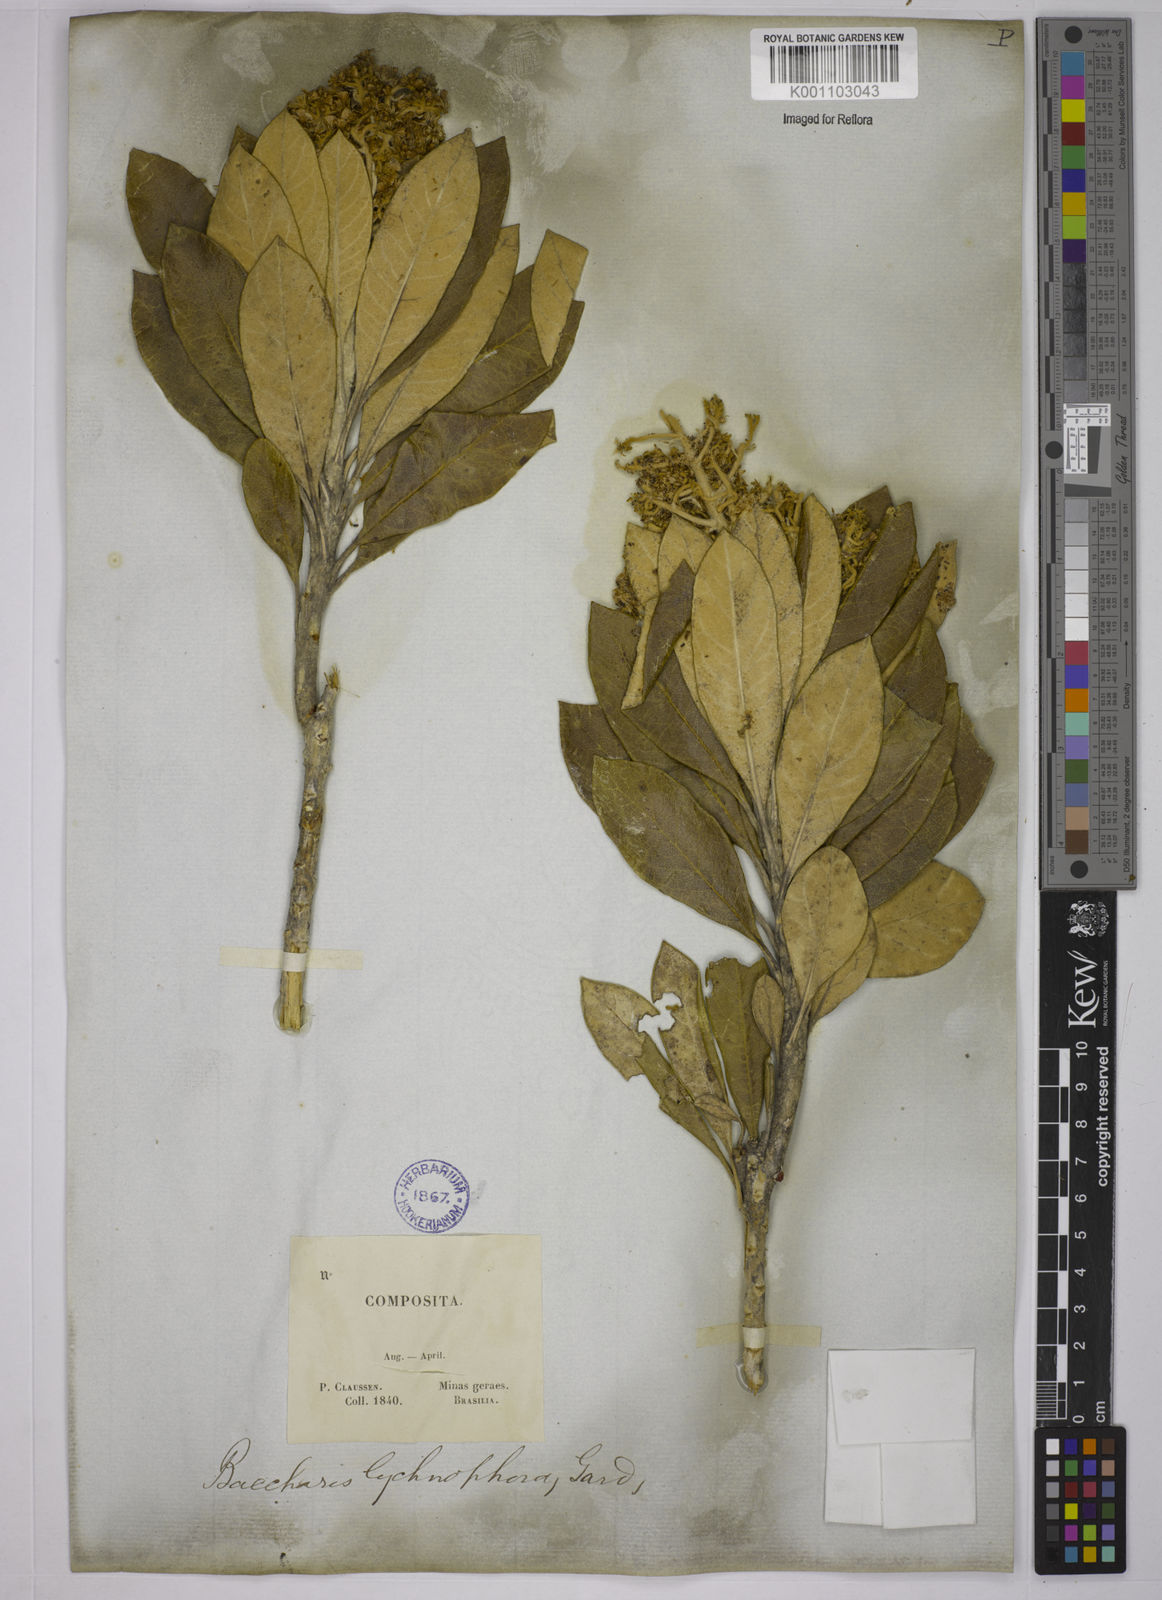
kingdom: Plantae
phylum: Tracheophyta
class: Magnoliopsida
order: Asterales
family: Asteraceae
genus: Baccharis
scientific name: Baccharis lychnophora
